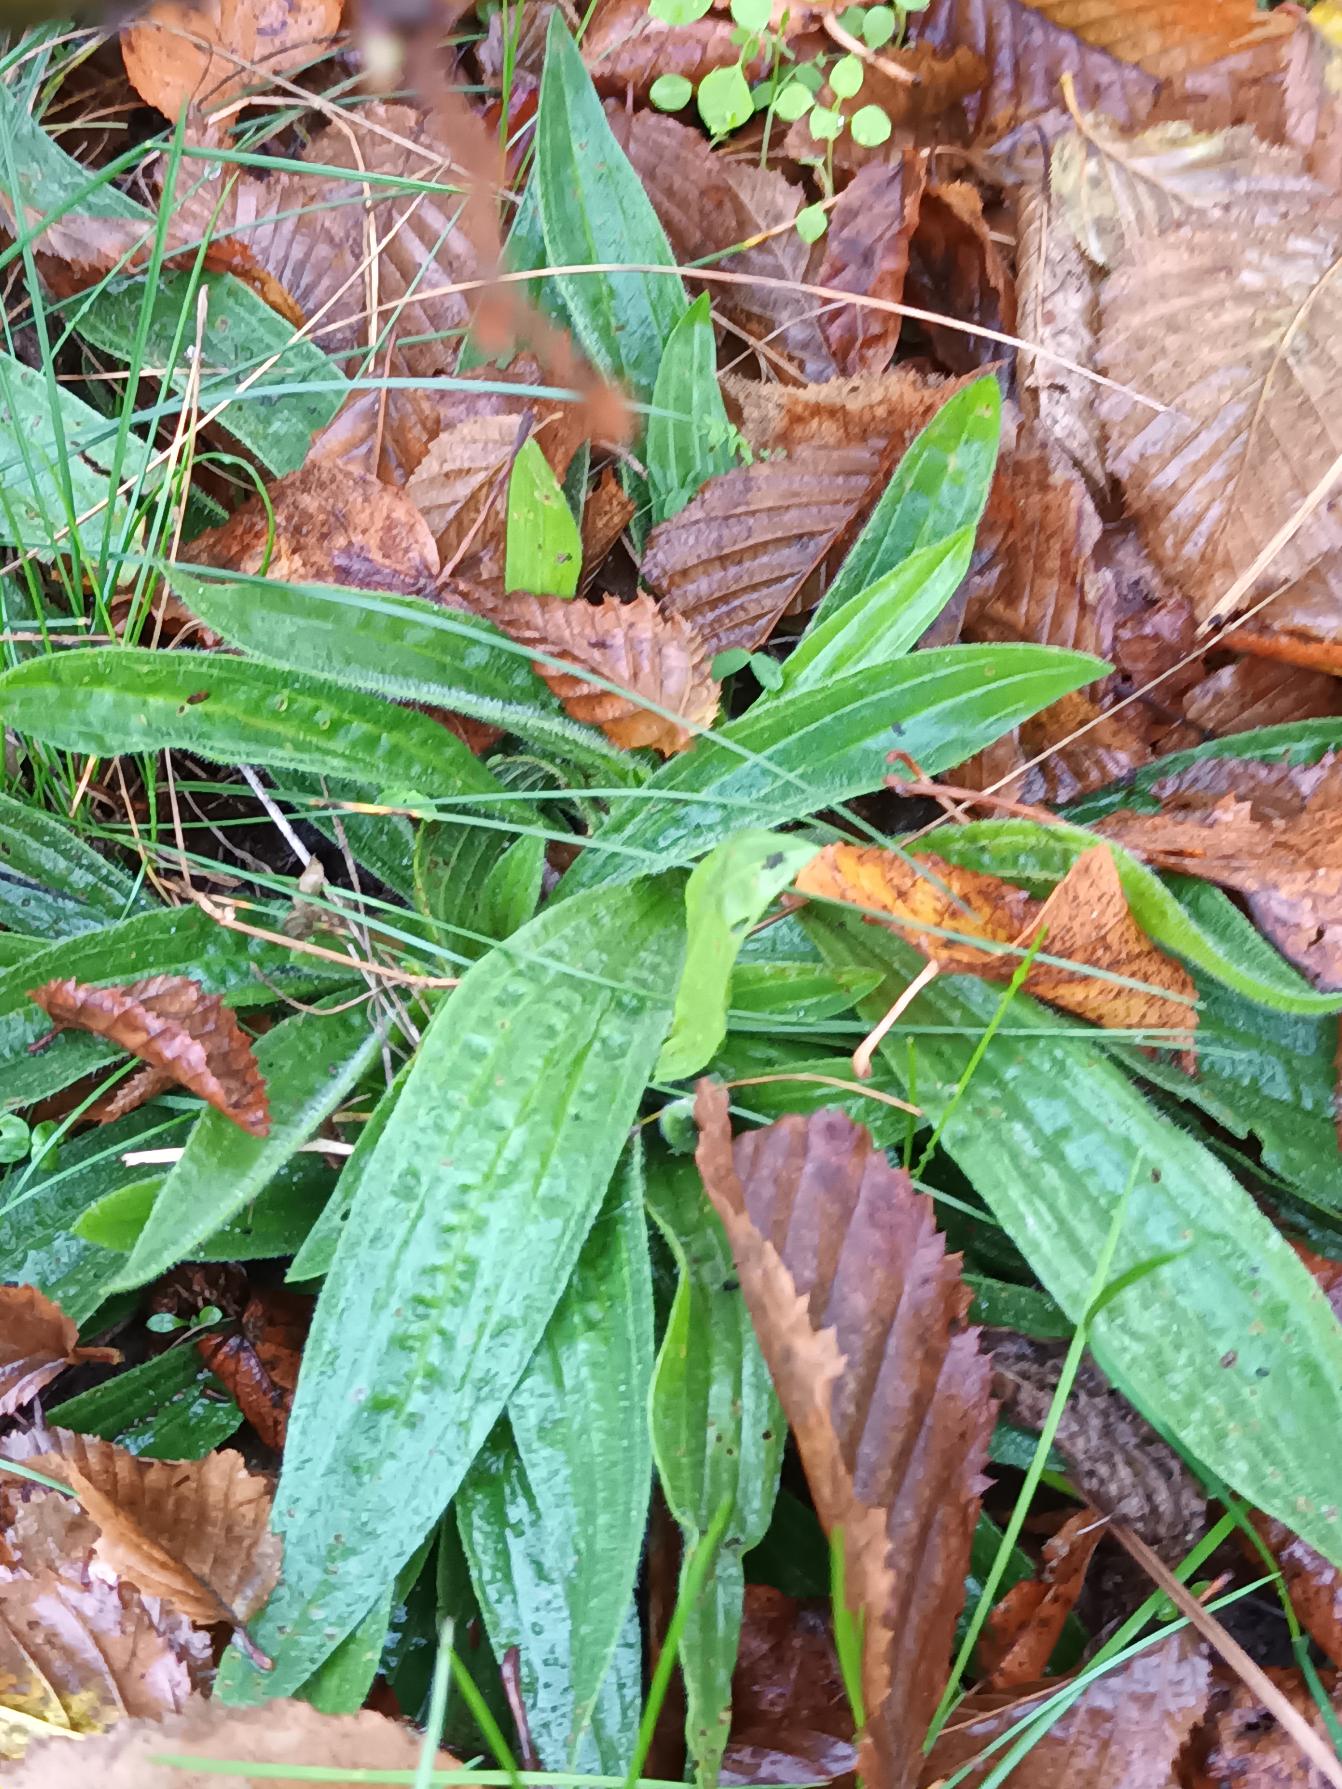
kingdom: Plantae
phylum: Tracheophyta
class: Magnoliopsida
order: Lamiales
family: Plantaginaceae
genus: Plantago
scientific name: Plantago lanceolata
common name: Lancet-vejbred
